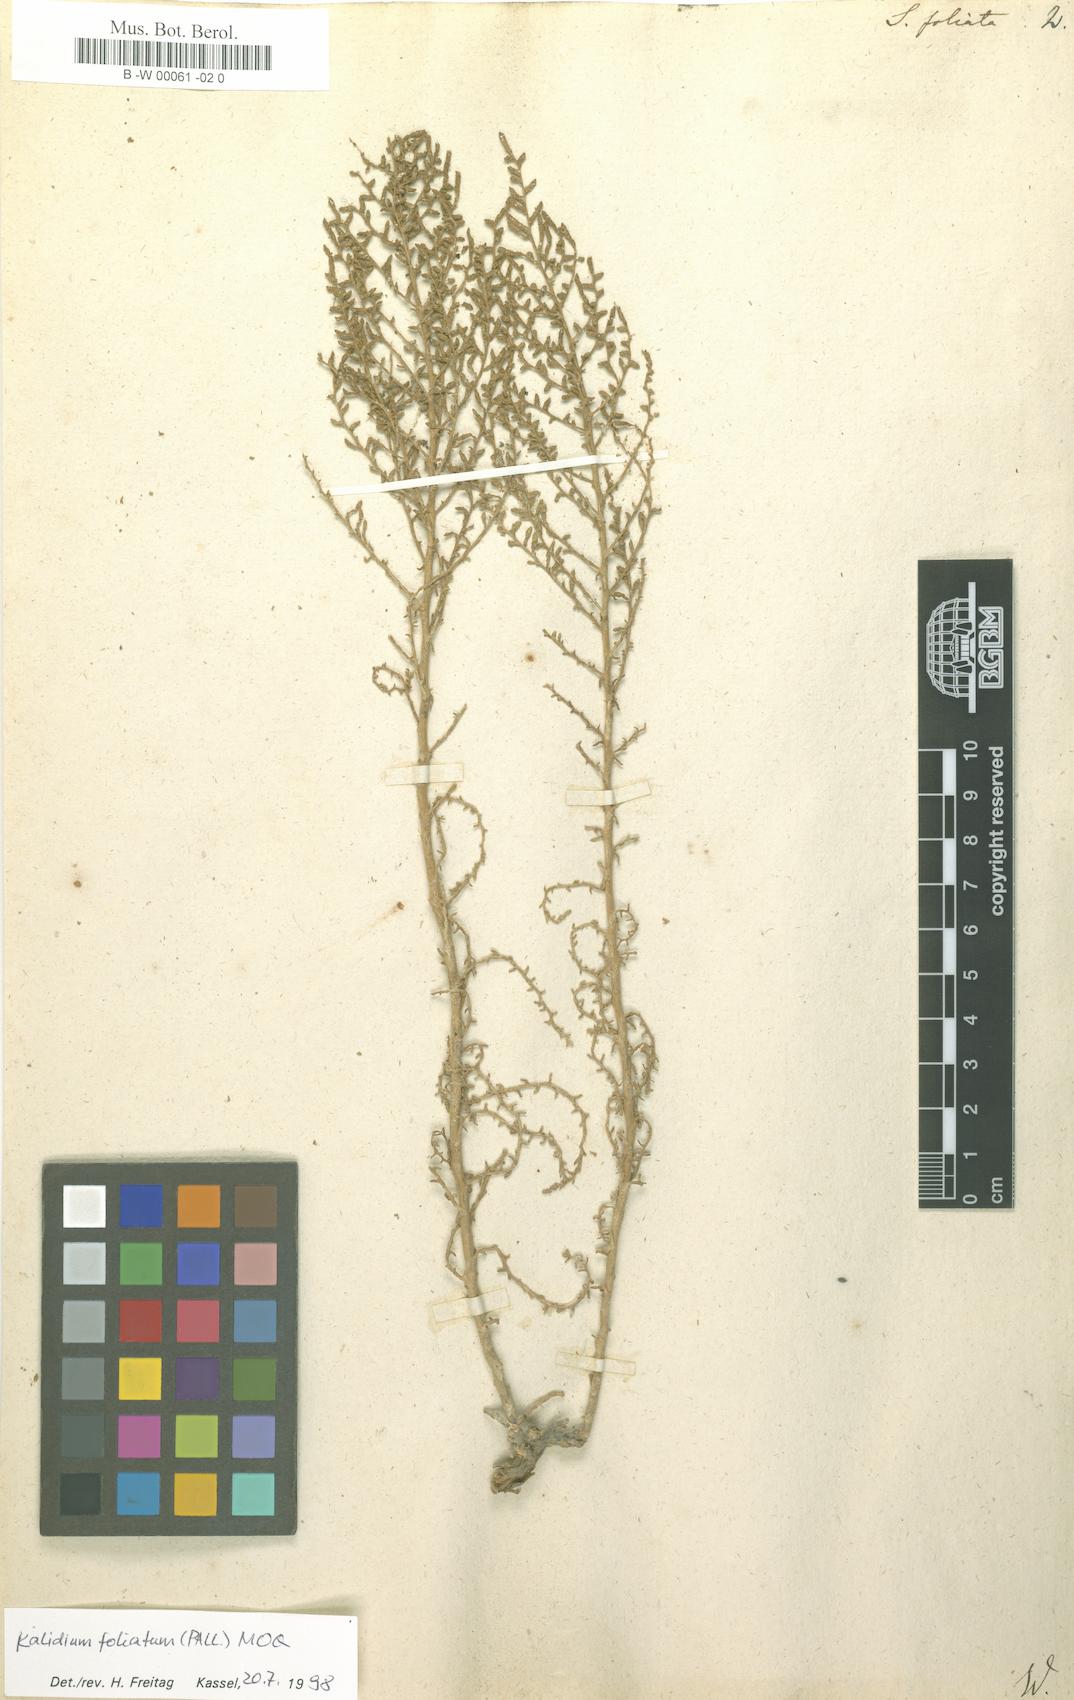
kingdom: Plantae
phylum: Tracheophyta
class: Magnoliopsida
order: Caryophyllales
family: Amaranthaceae
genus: Kalidium
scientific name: Kalidium foliatum
